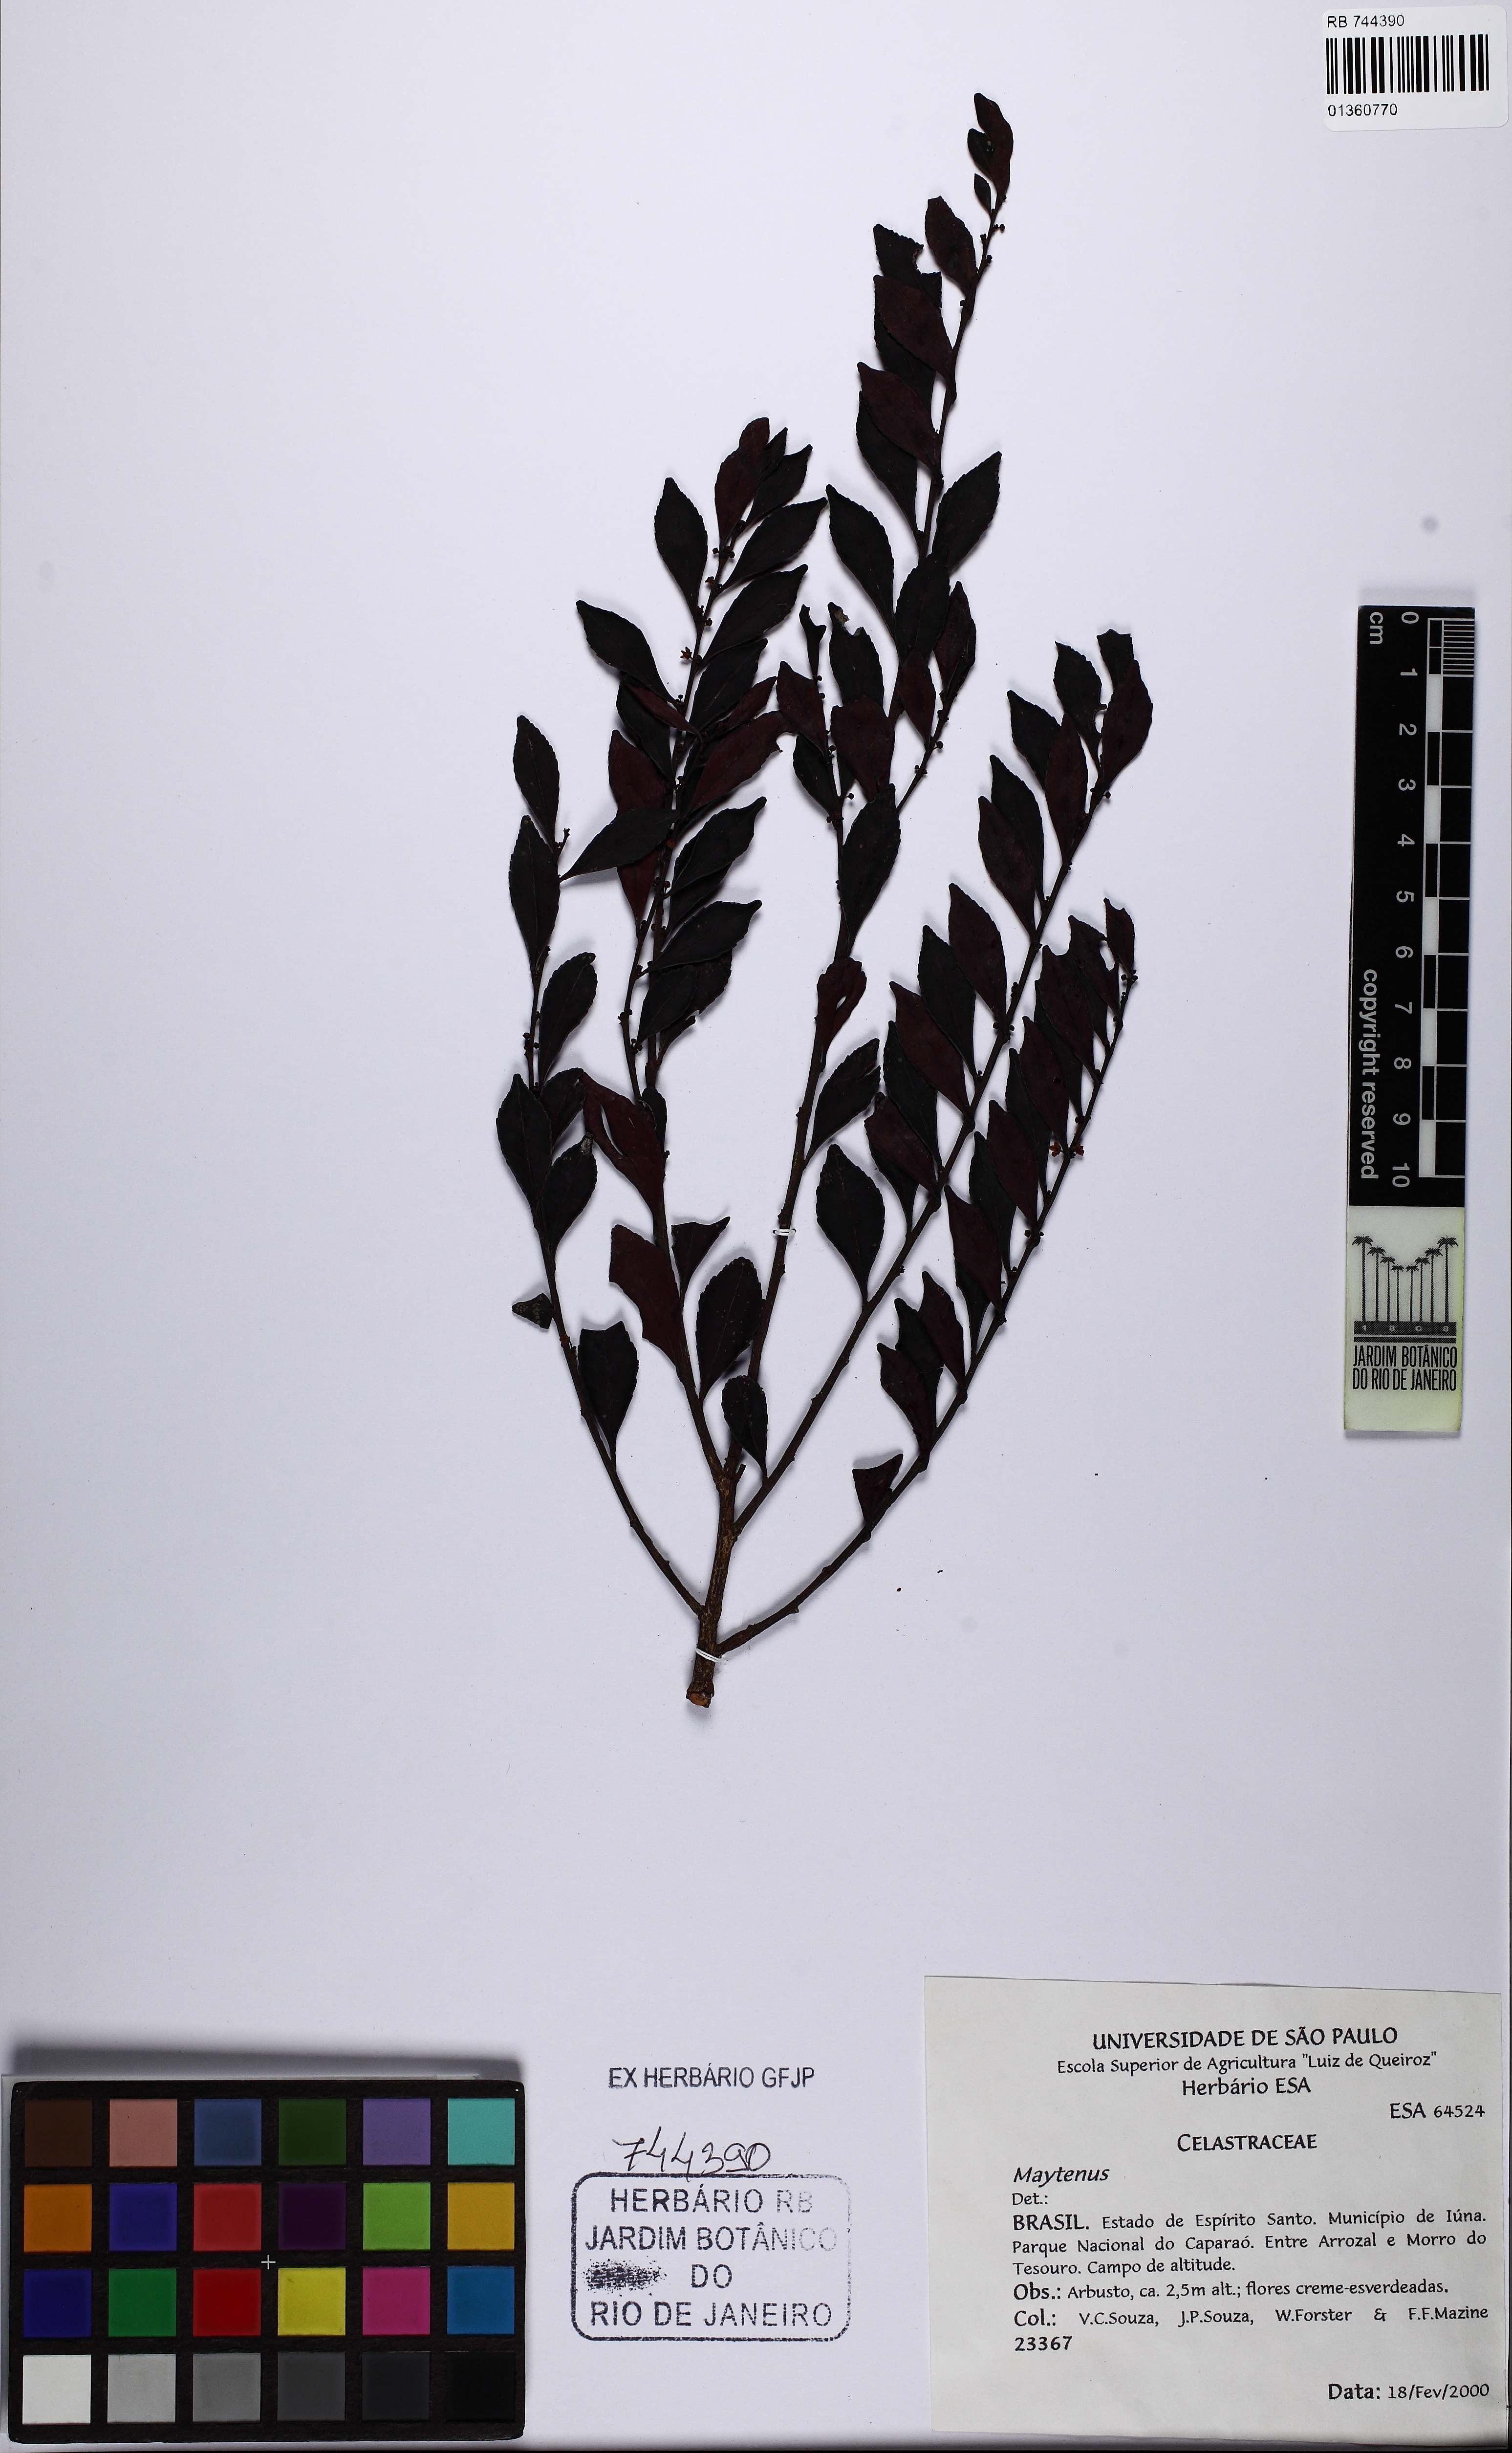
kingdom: Plantae
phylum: Tracheophyta
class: Magnoliopsida
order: Celastrales
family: Celastraceae
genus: Maytenus
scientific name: Maytenus
